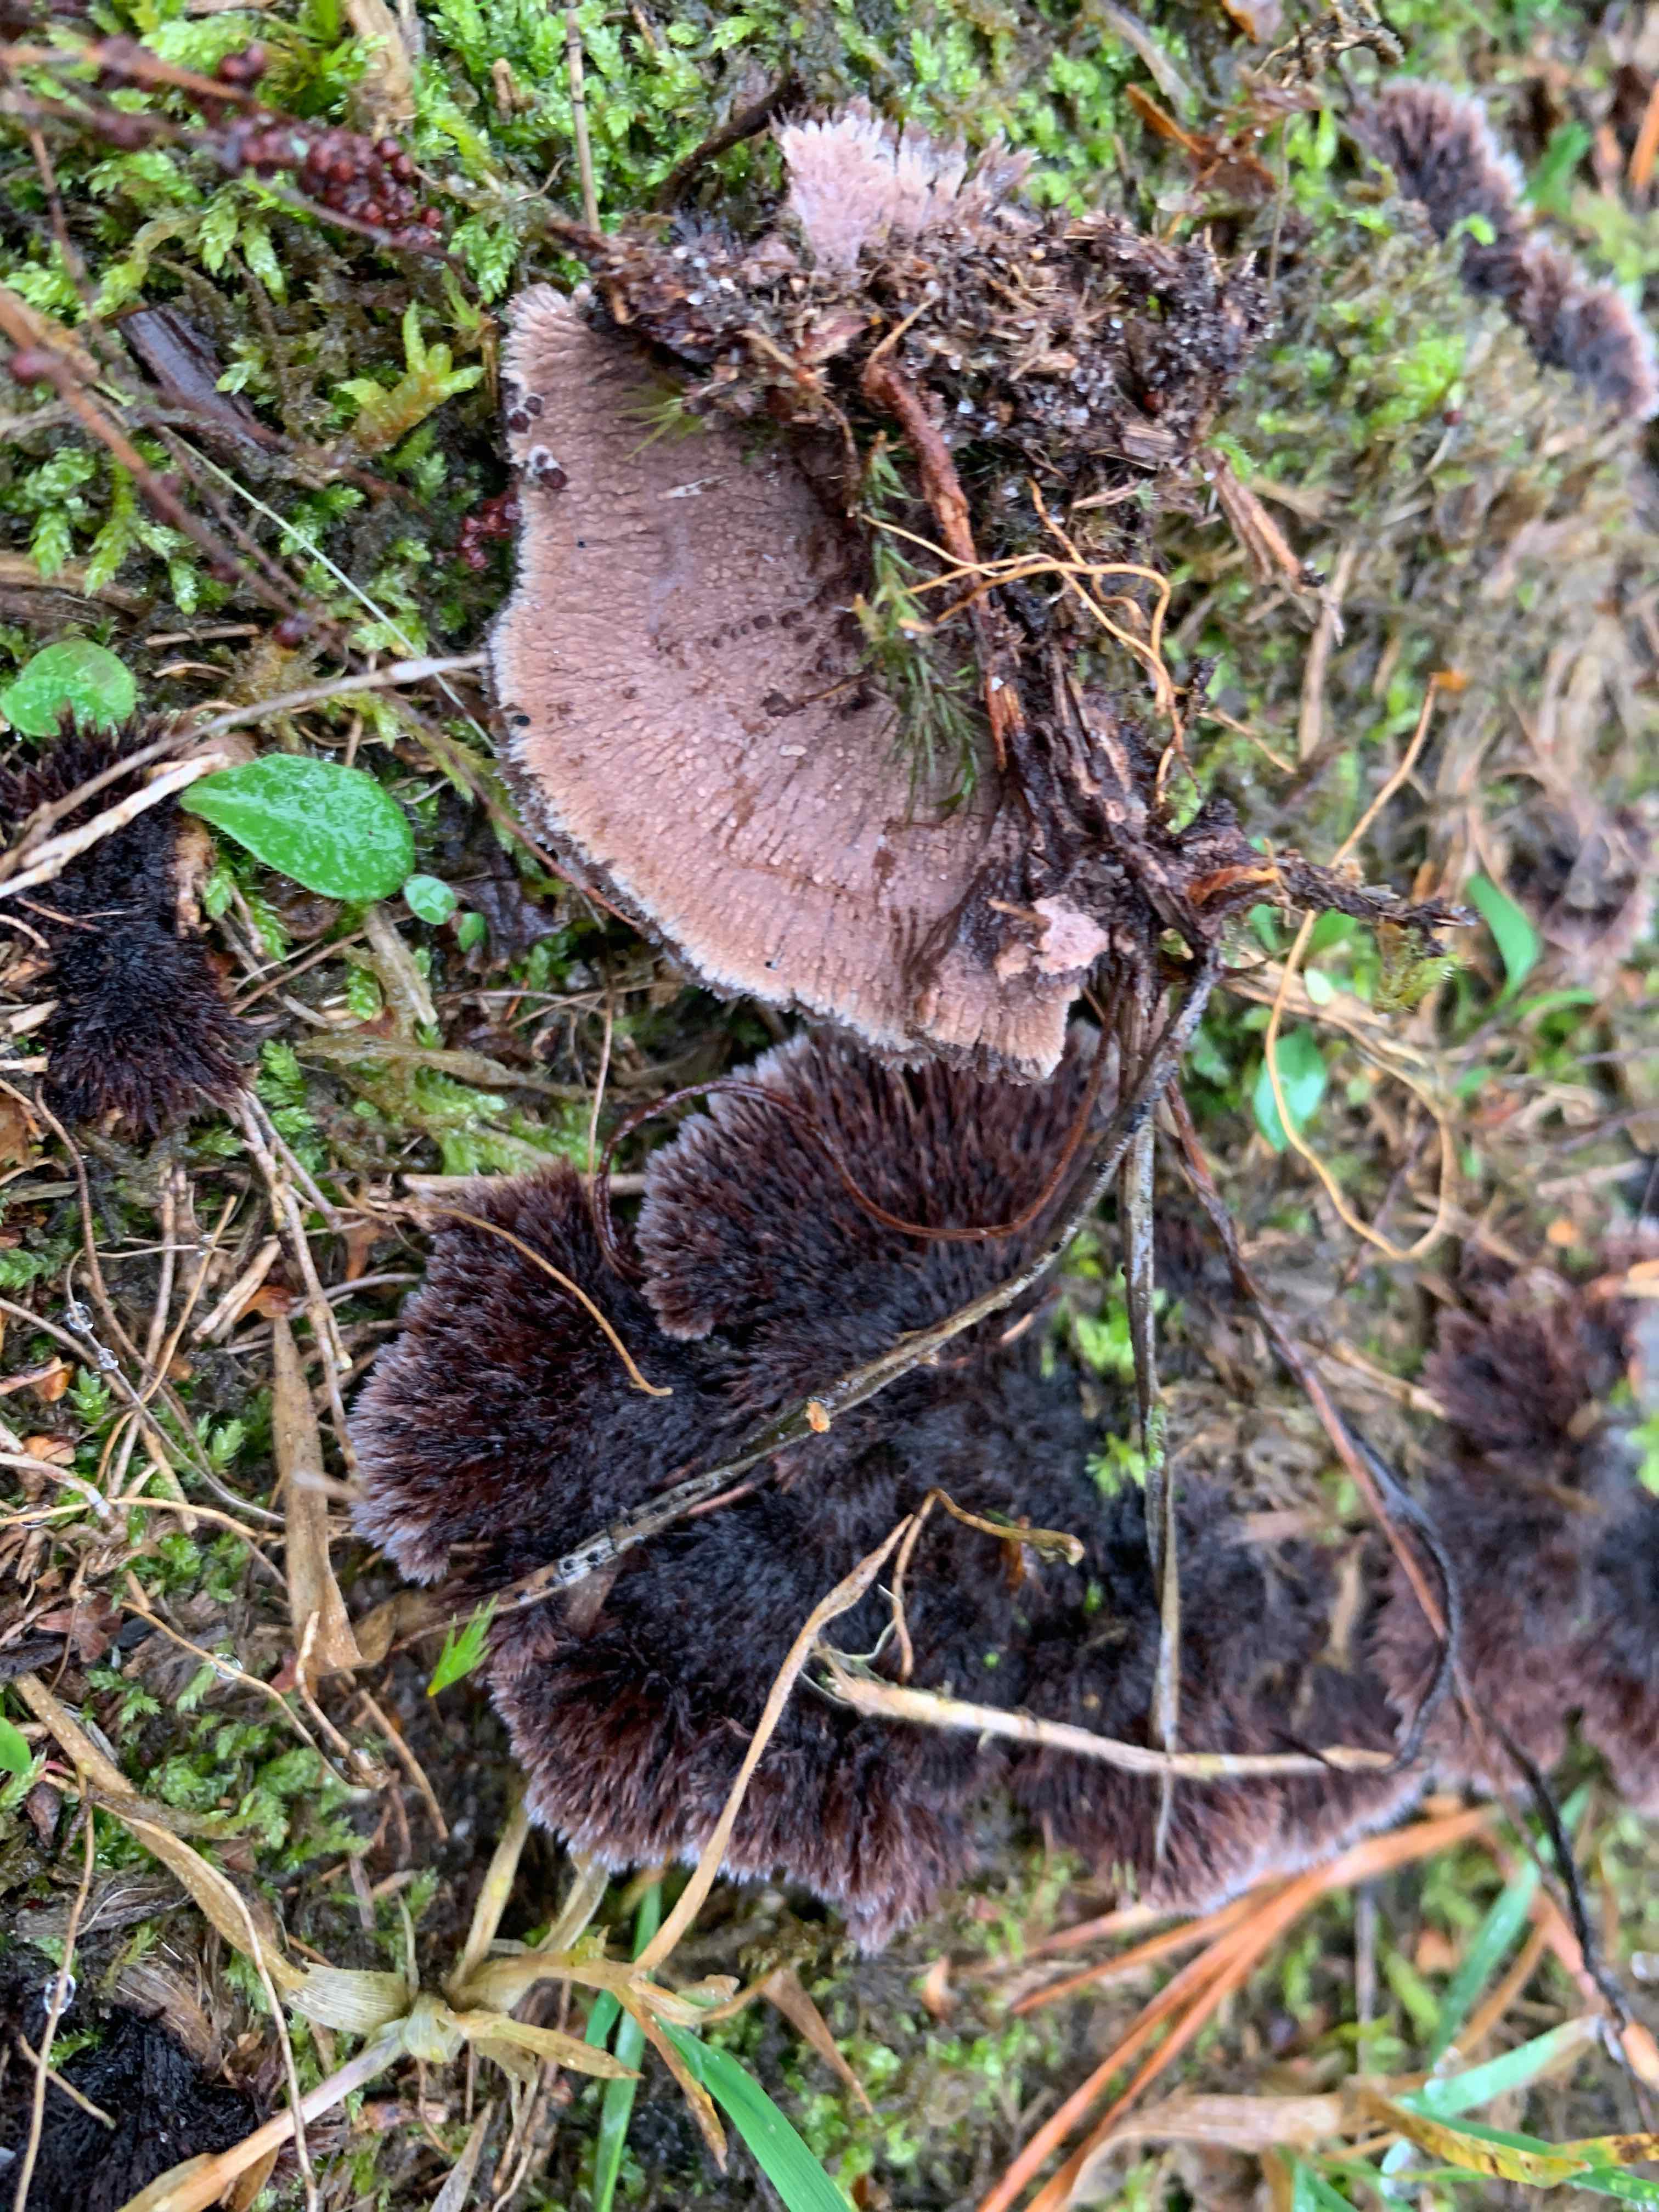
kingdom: Fungi
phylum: Basidiomycota
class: Agaricomycetes
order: Thelephorales
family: Thelephoraceae
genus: Thelephora
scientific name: Thelephora terrestris
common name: fliget frynsesvamp
